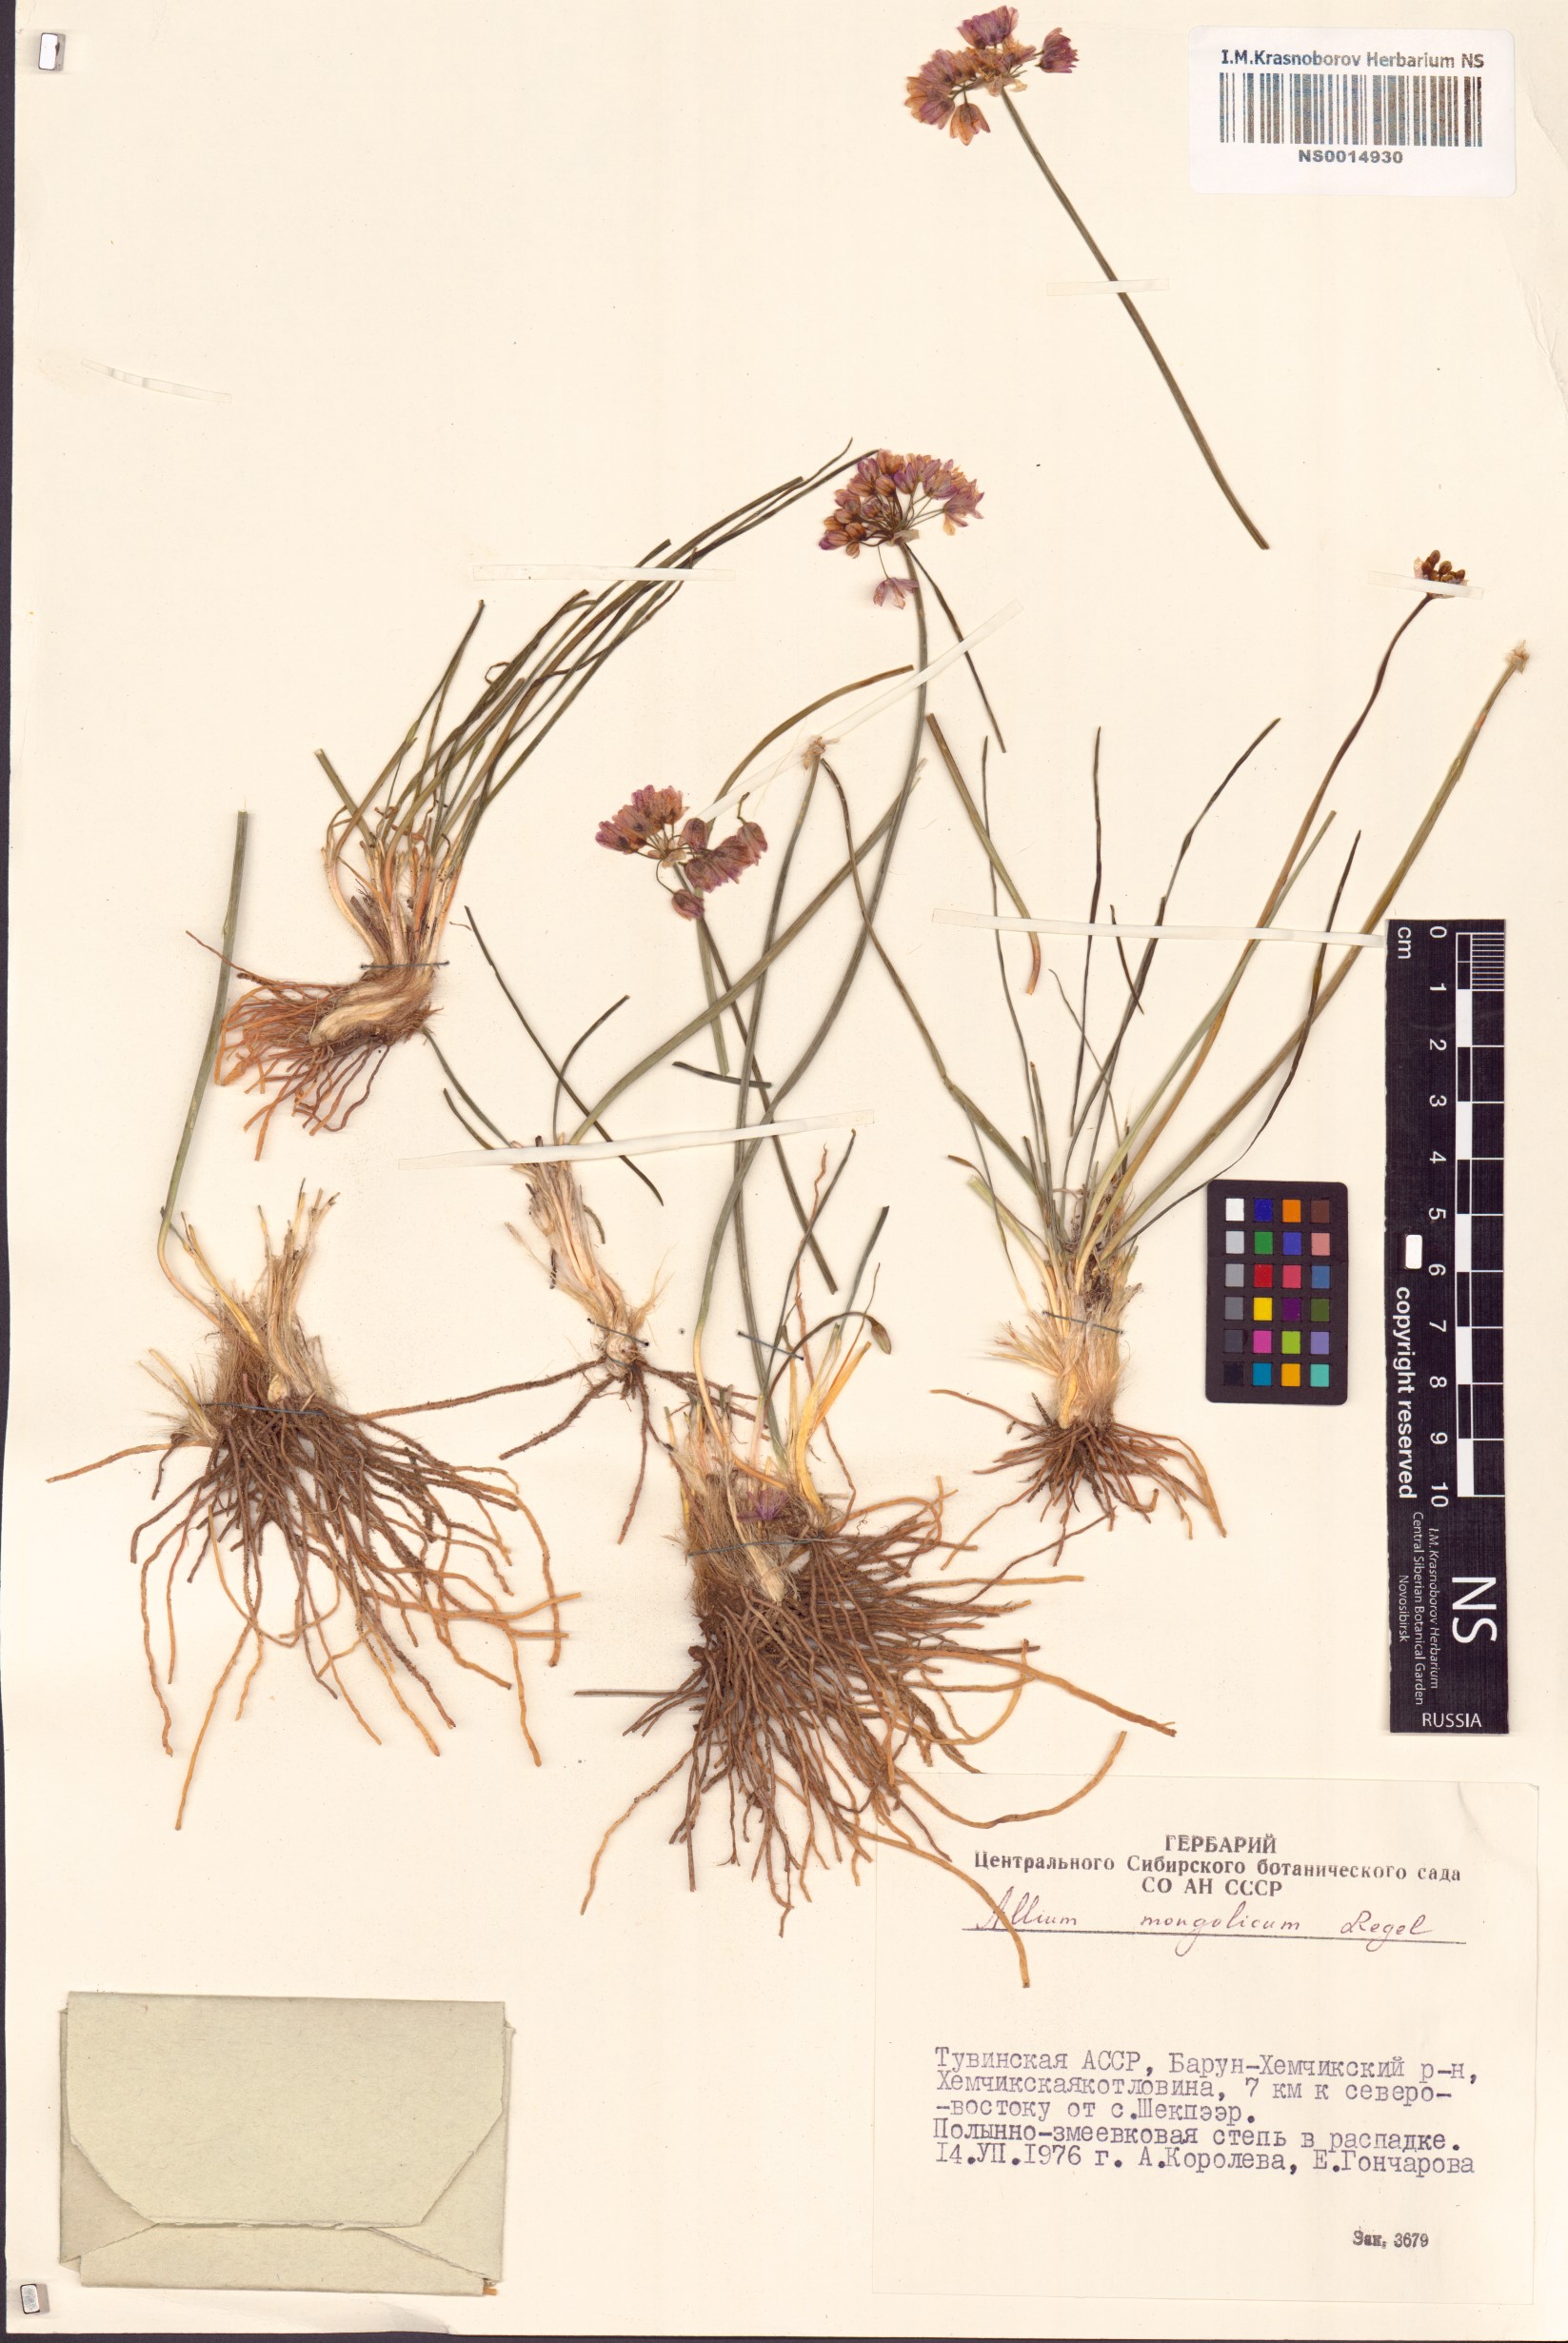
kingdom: Plantae
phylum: Tracheophyta
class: Liliopsida
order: Asparagales
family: Amaryllidaceae
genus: Allium
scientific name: Allium mongolicum
